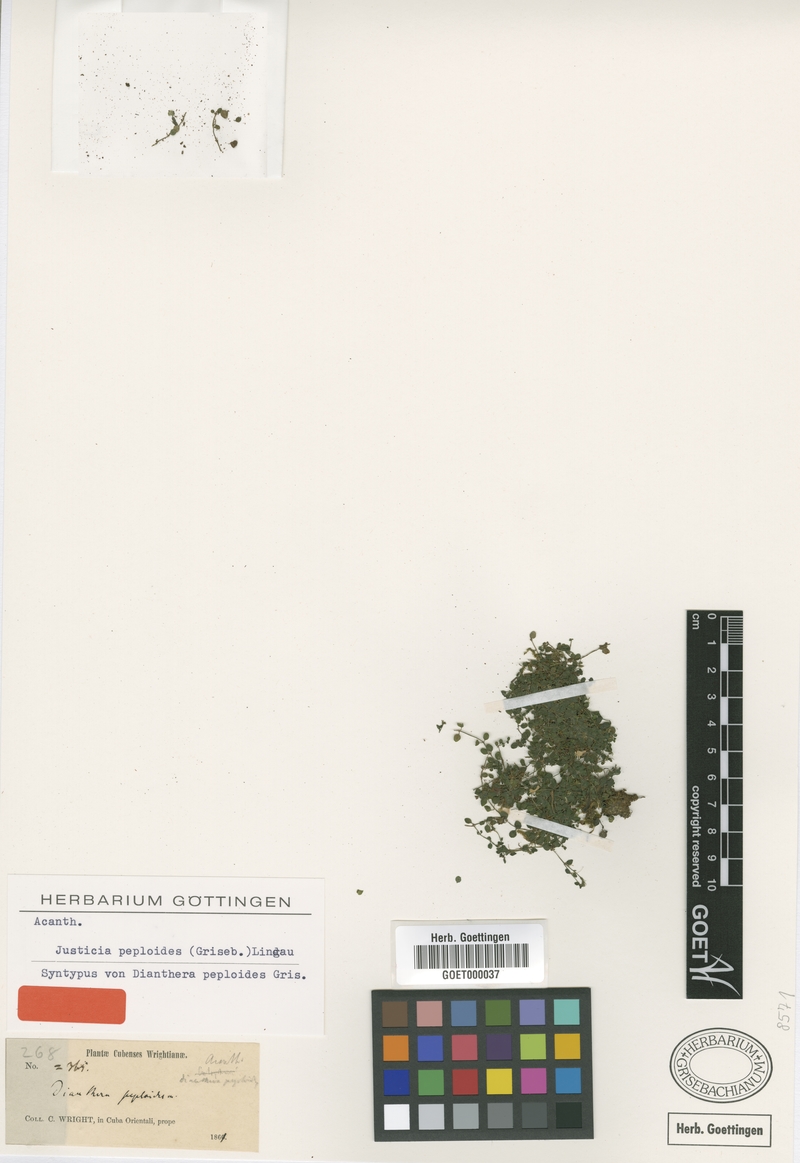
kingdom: Plantae
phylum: Tracheophyta
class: Magnoliopsida
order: Lamiales
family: Acanthaceae
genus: Dianthera
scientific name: Dianthera peploides
